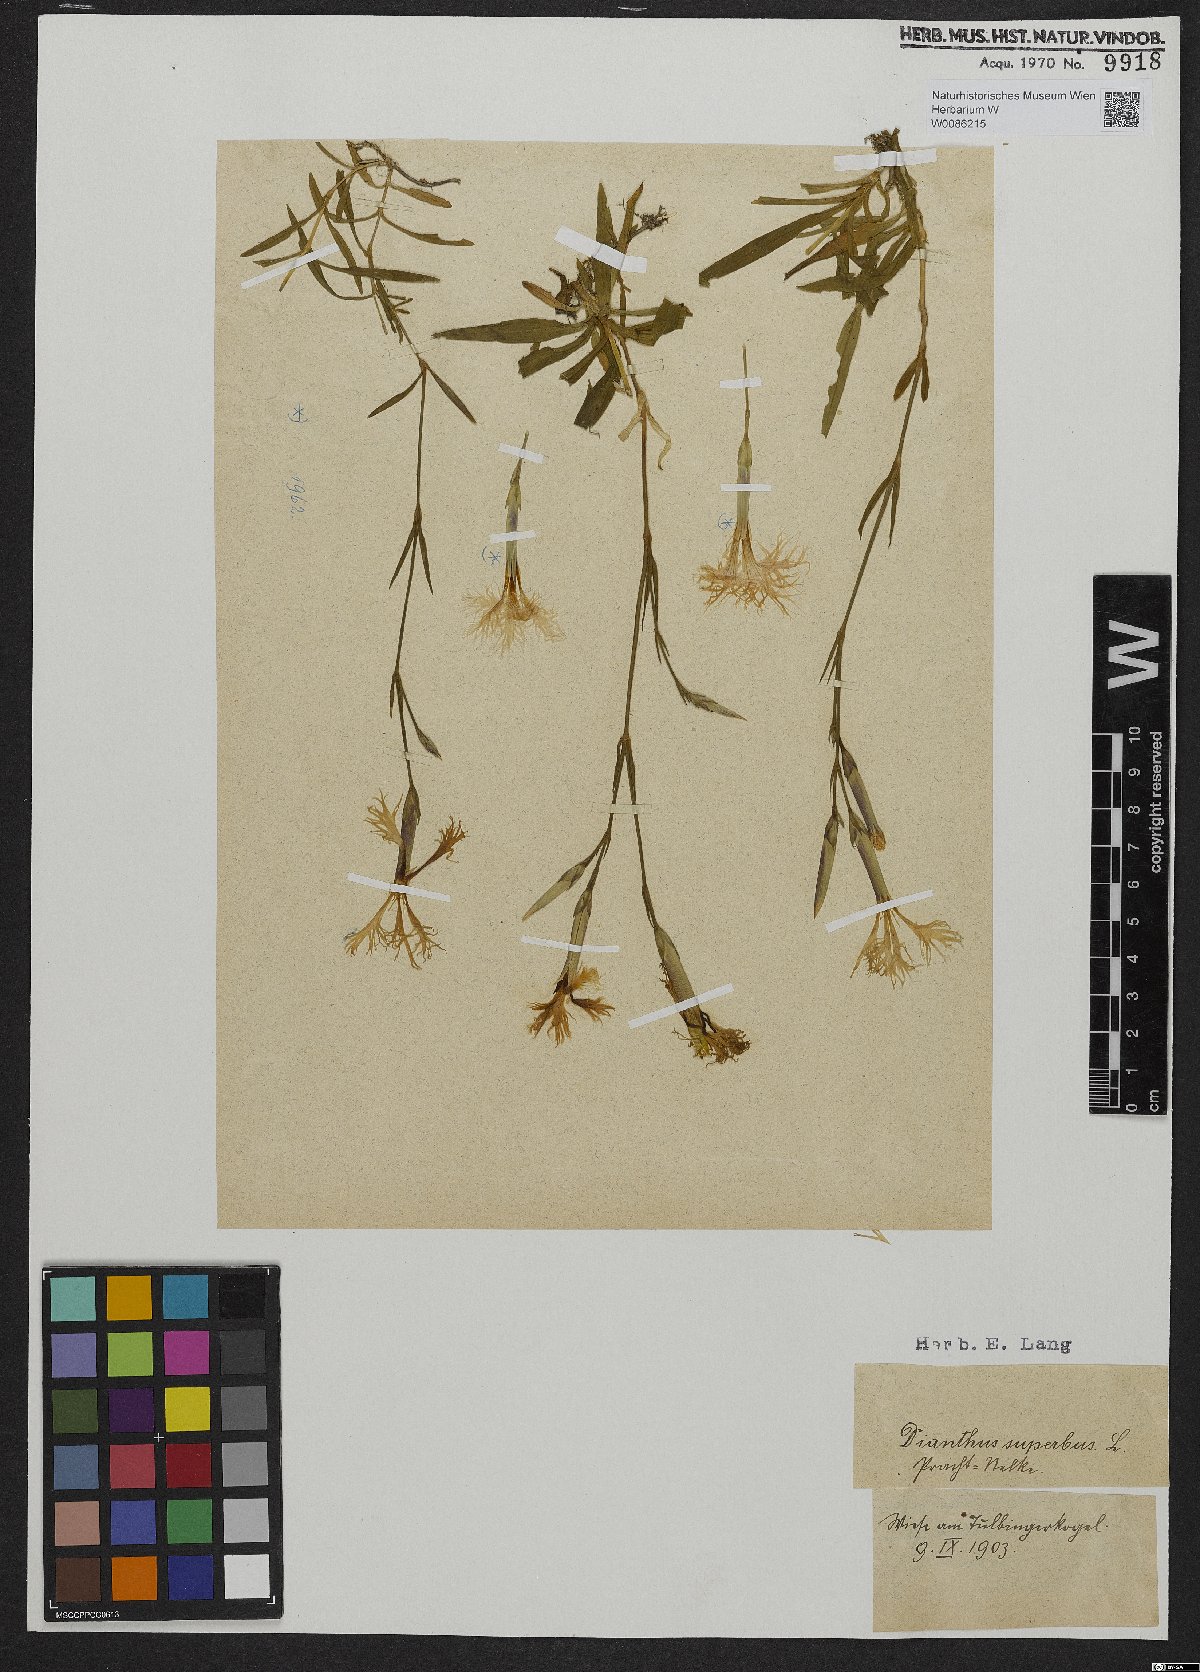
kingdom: Plantae
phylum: Tracheophyta
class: Magnoliopsida
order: Caryophyllales
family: Caryophyllaceae
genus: Dianthus
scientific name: Dianthus superbus
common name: Fringed pink
